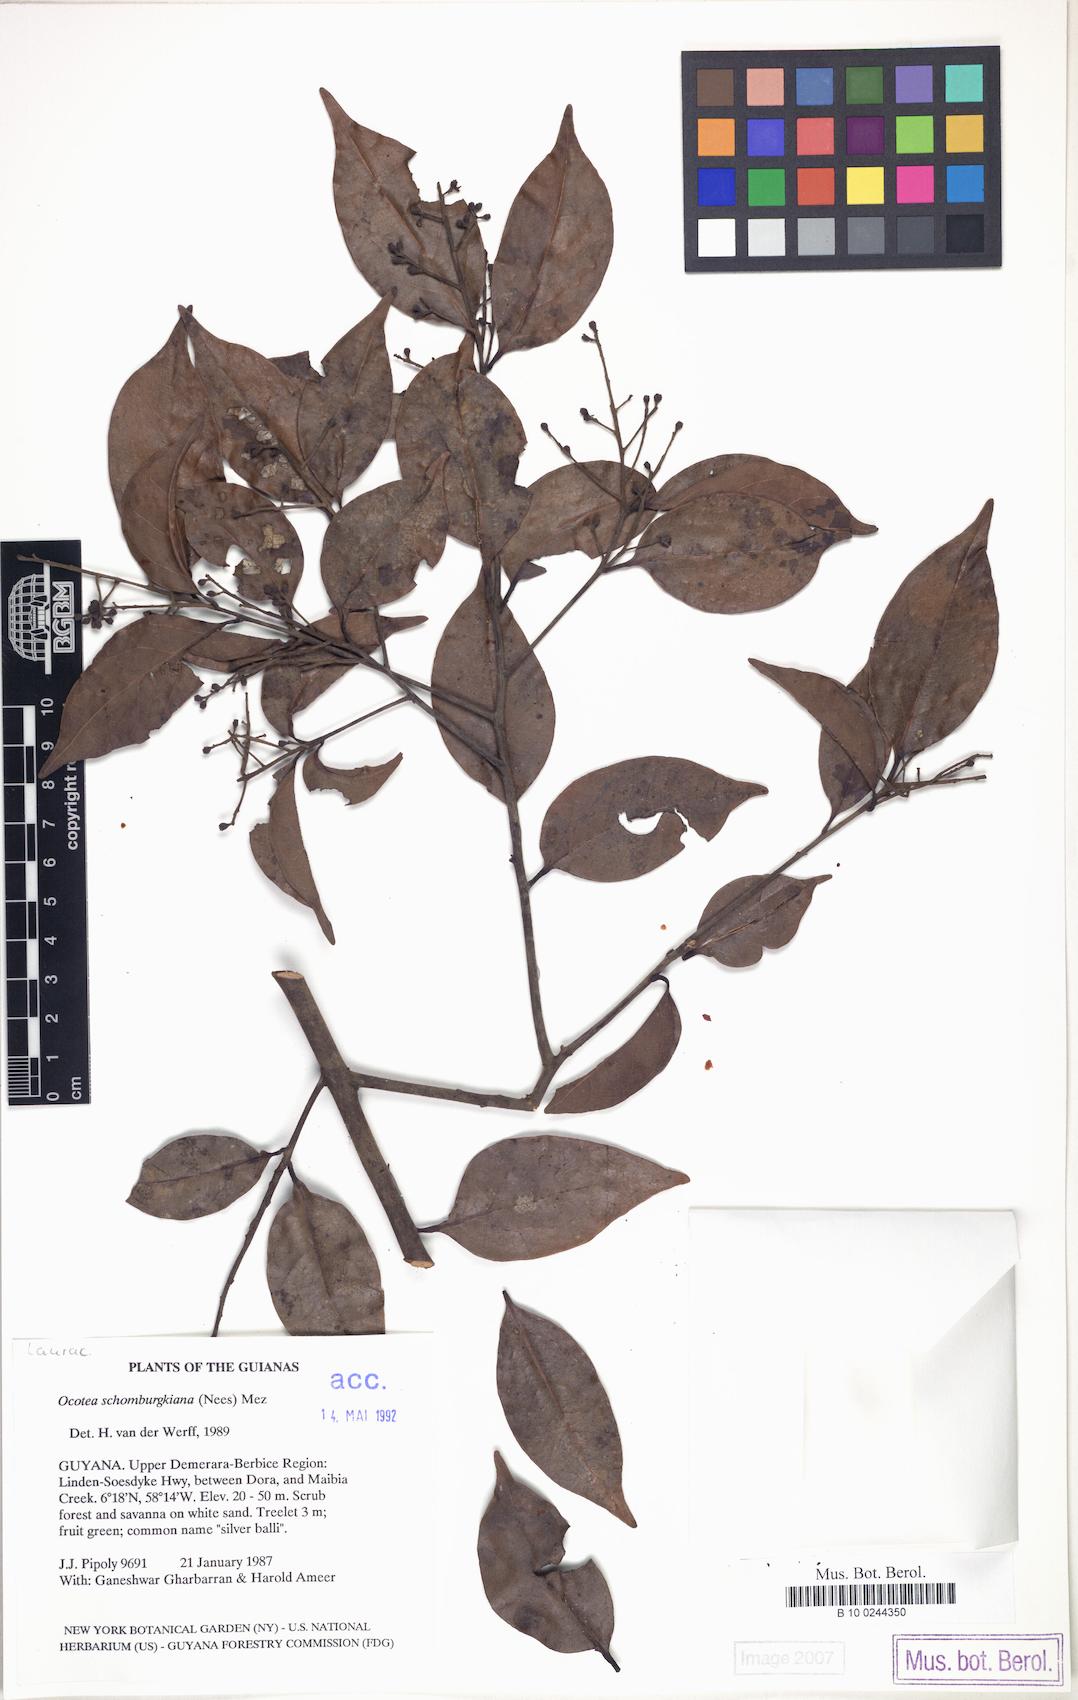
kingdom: Plantae
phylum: Tracheophyta
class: Magnoliopsida
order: Laurales
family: Lauraceae
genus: Ocotea
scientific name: Ocotea schomburgkiana
